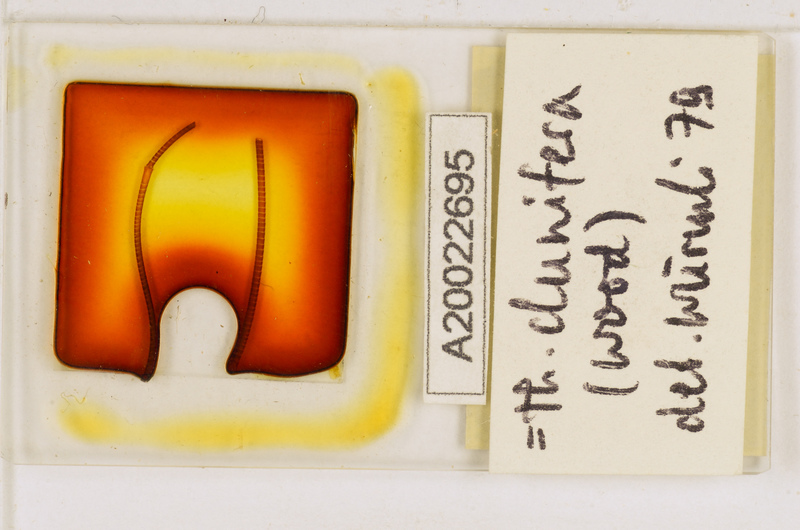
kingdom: Animalia
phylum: Arthropoda
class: Chilopoda
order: Scutigeromorpha
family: Scutigeridae
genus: Thereuopoda
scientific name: Thereuopoda clunifera
